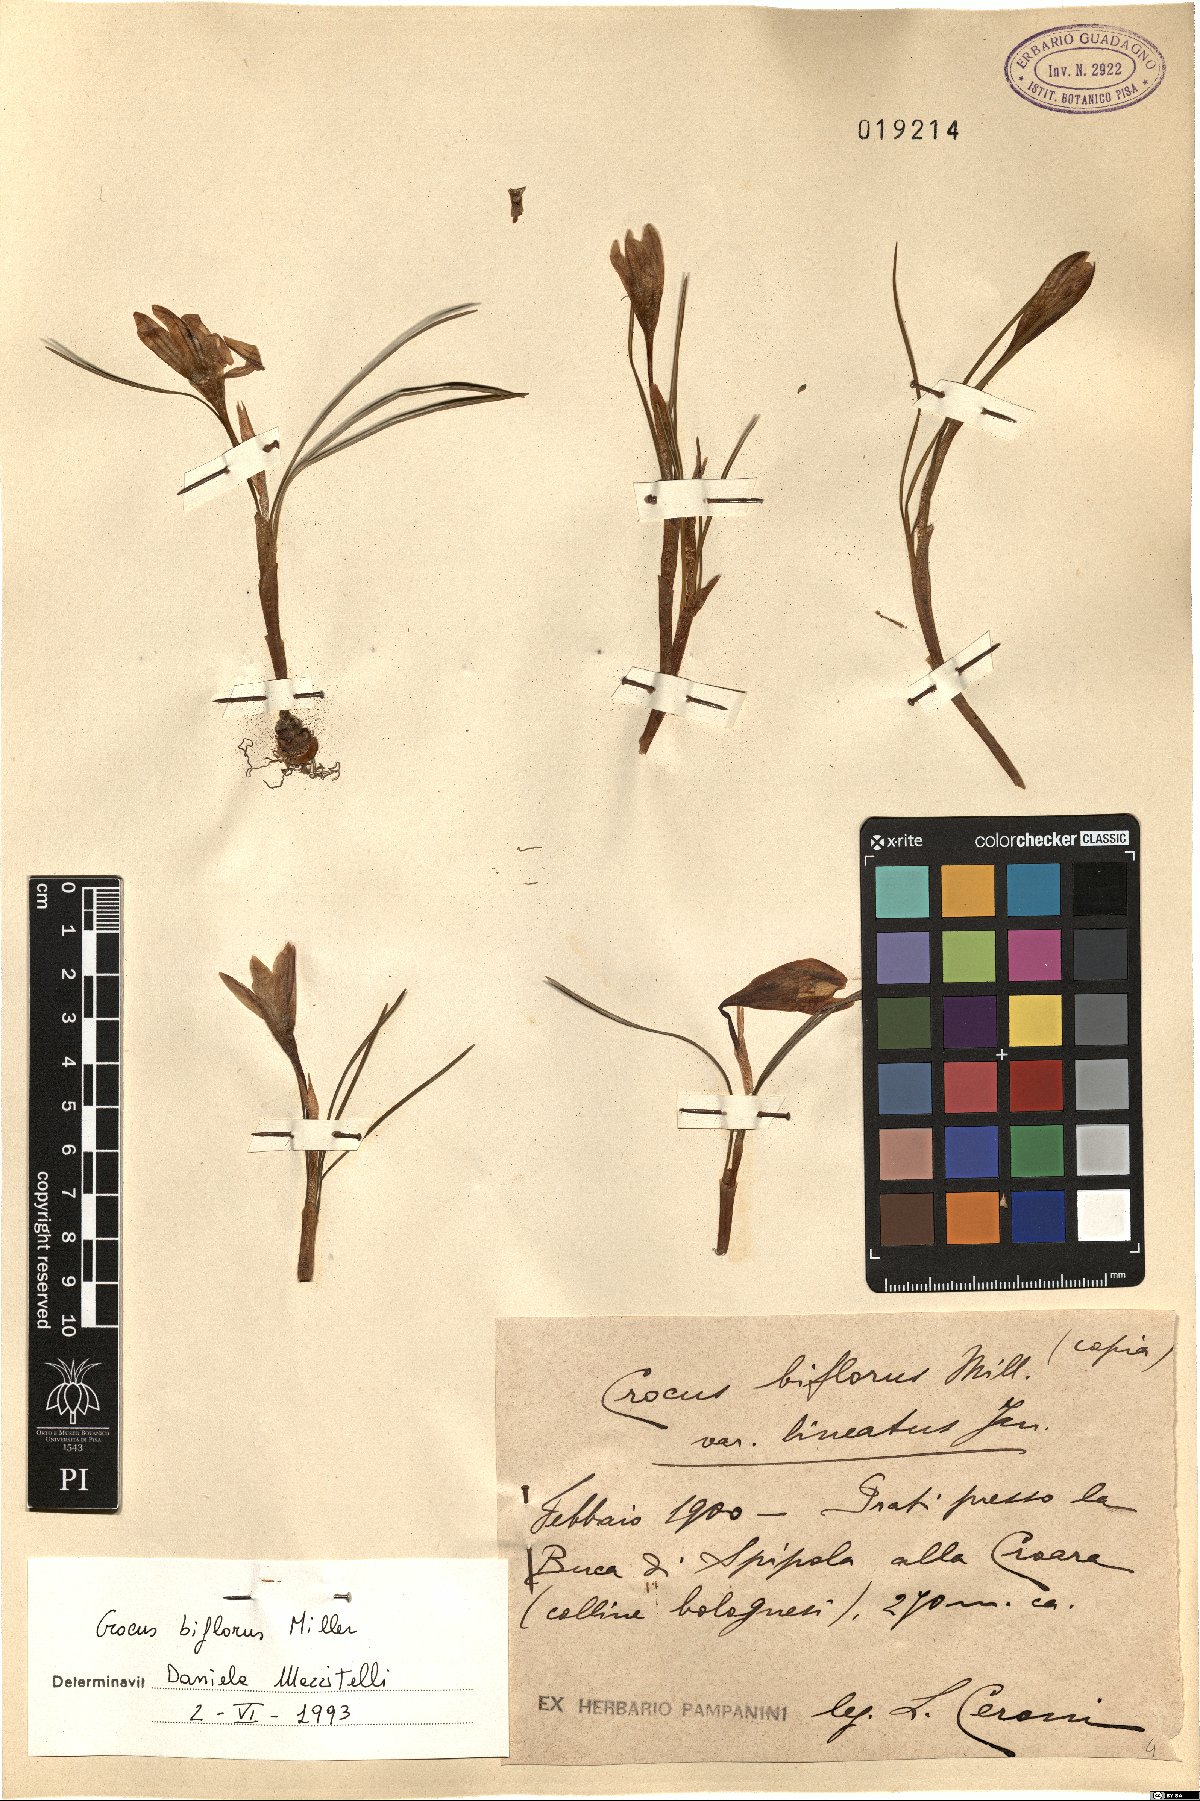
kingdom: Plantae
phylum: Tracheophyta
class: Liliopsida
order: Asparagales
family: Iridaceae
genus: Crocus
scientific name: Crocus biflorus
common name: Silvery crocus
